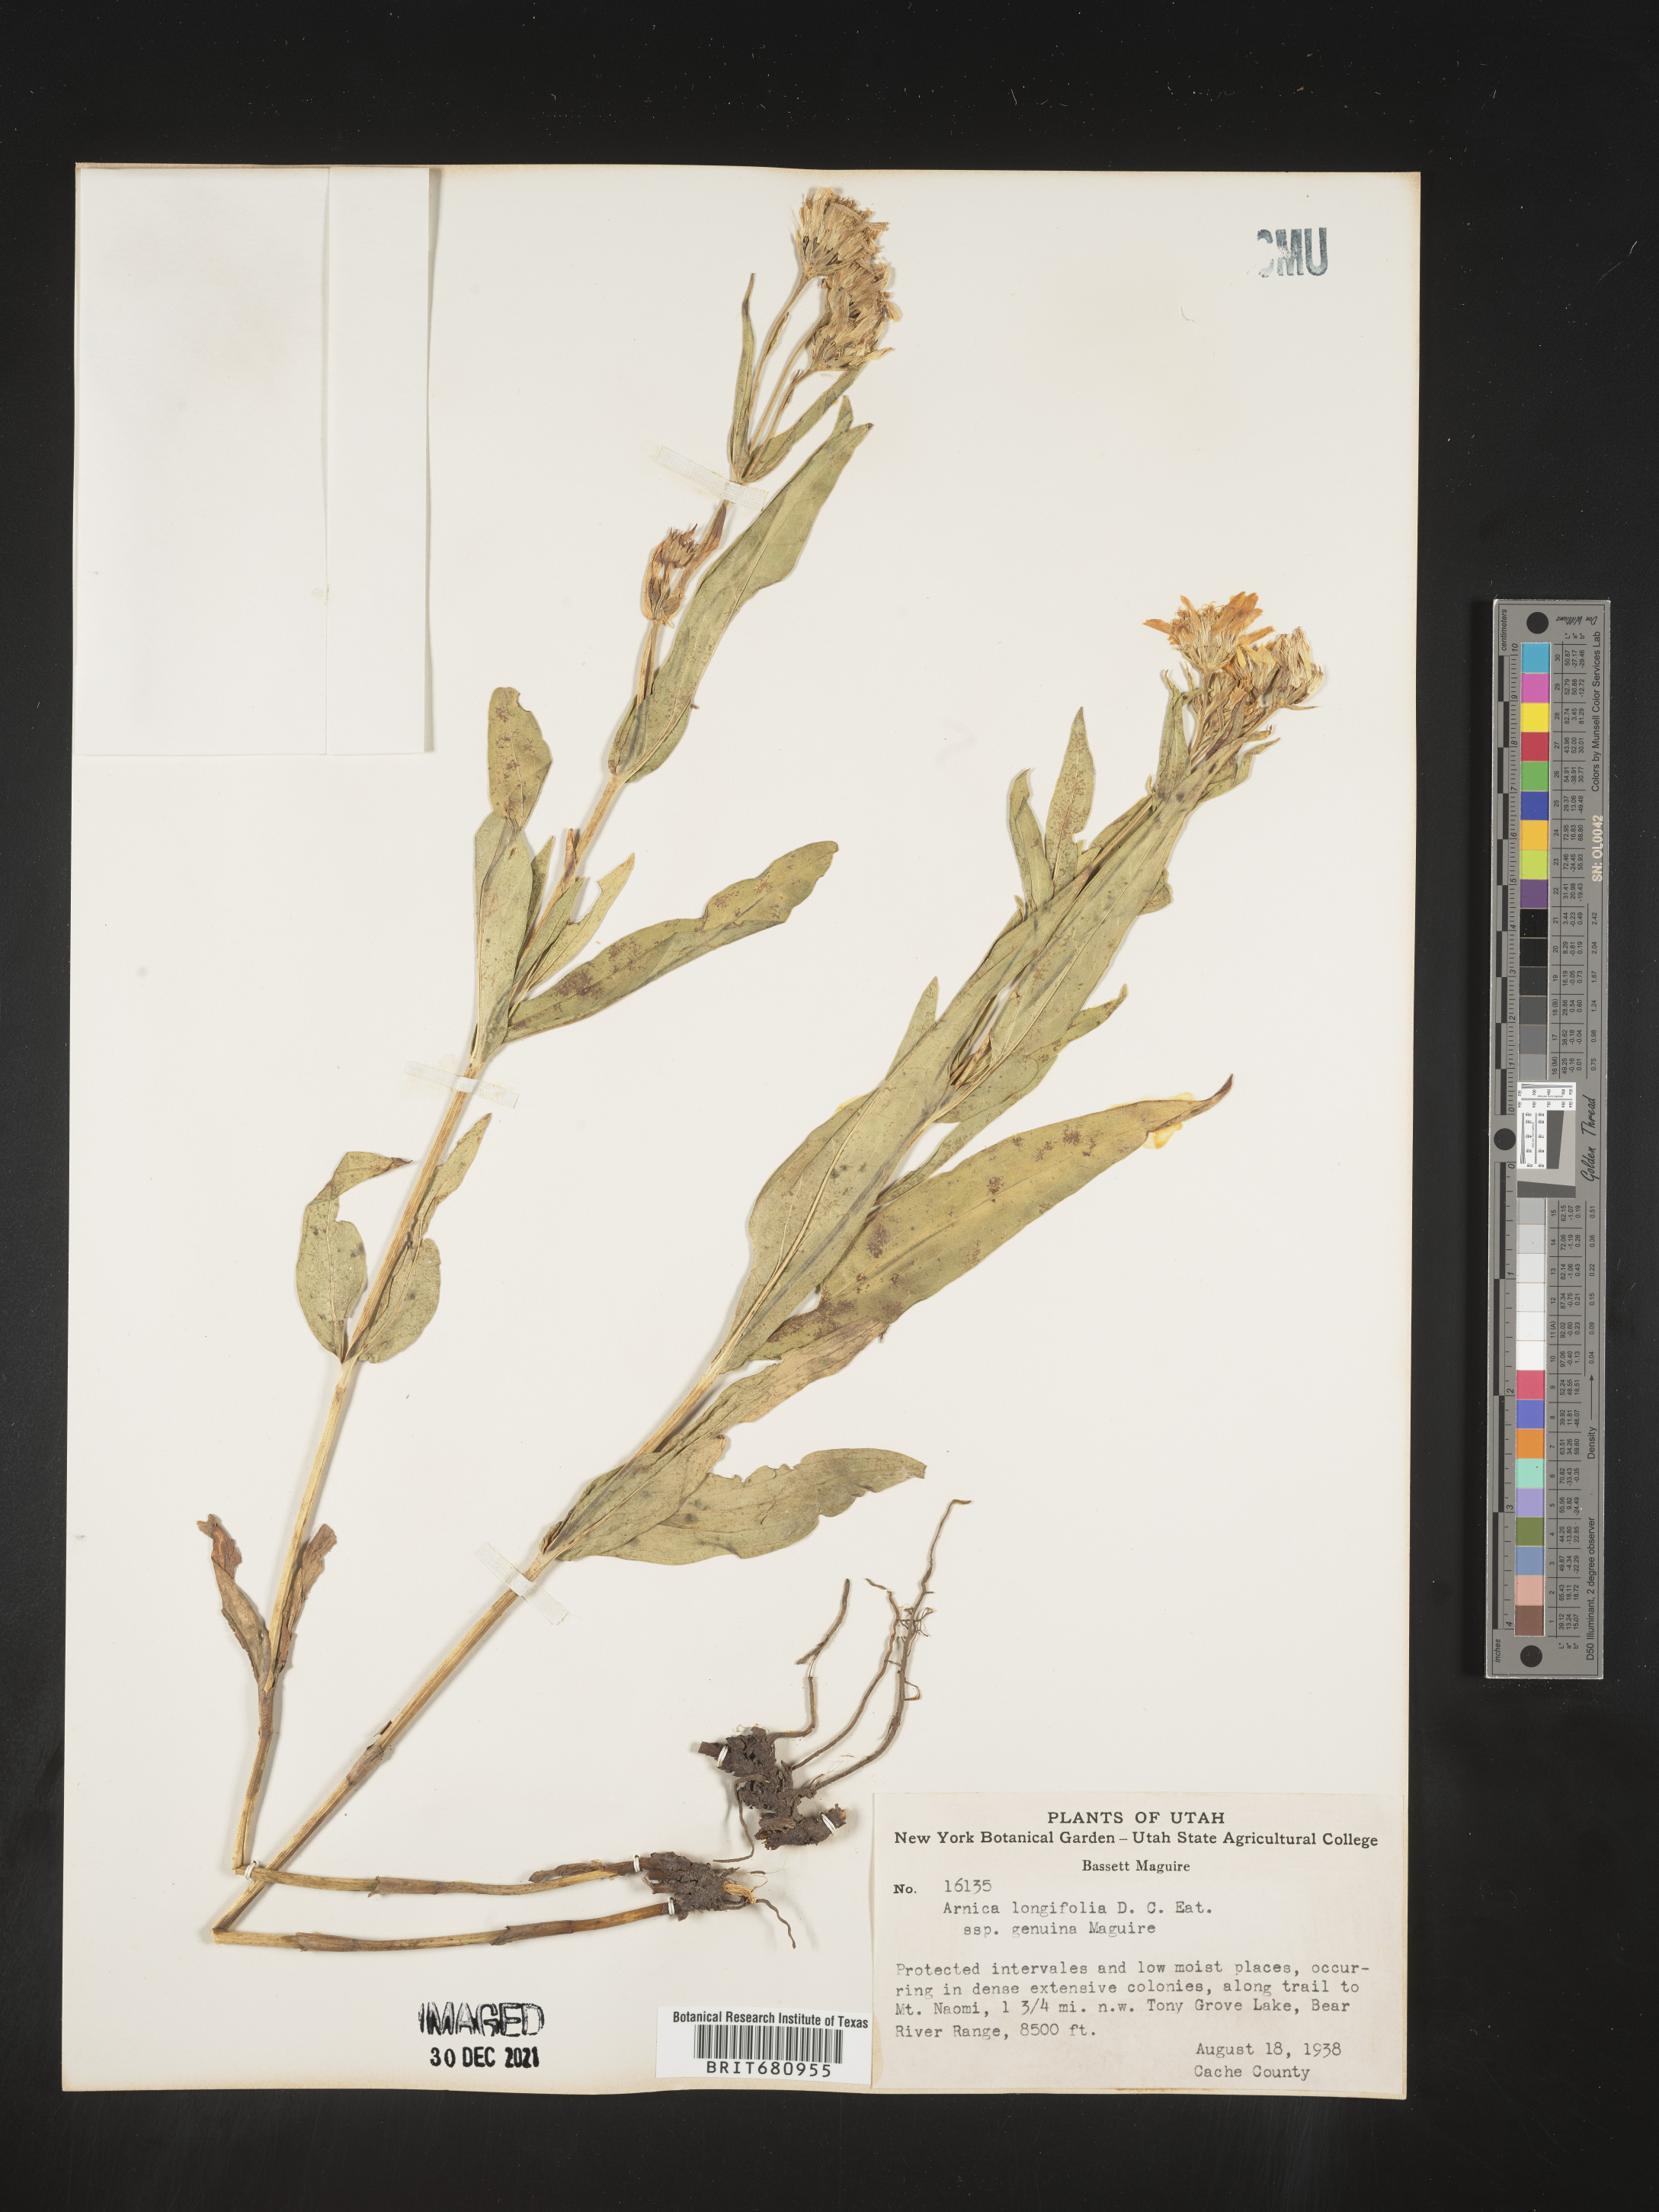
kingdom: Plantae
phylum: Tracheophyta
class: Magnoliopsida
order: Asterales
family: Asteraceae
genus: Arnica
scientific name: Arnica longifolia
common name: Spear-leaf arnica
